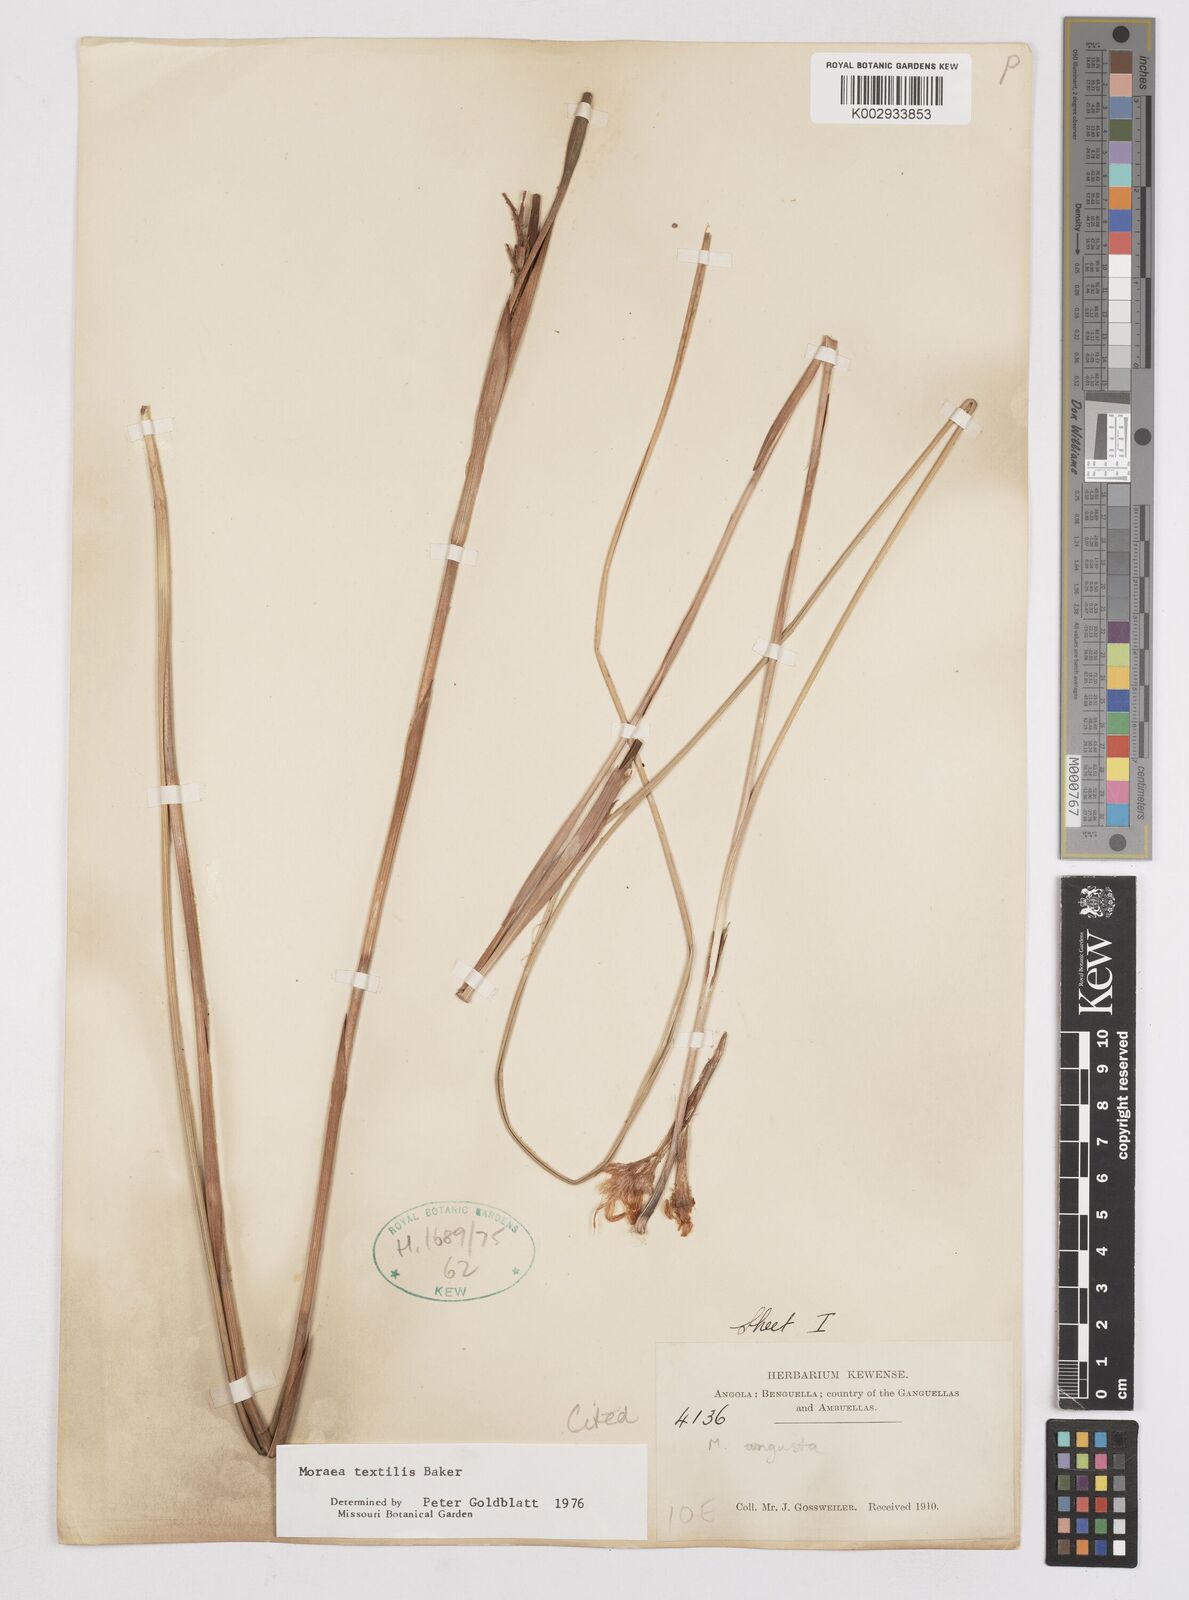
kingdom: Plantae
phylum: Tracheophyta
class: Liliopsida
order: Asparagales
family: Iridaceae
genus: Moraea
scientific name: Moraea textilis
